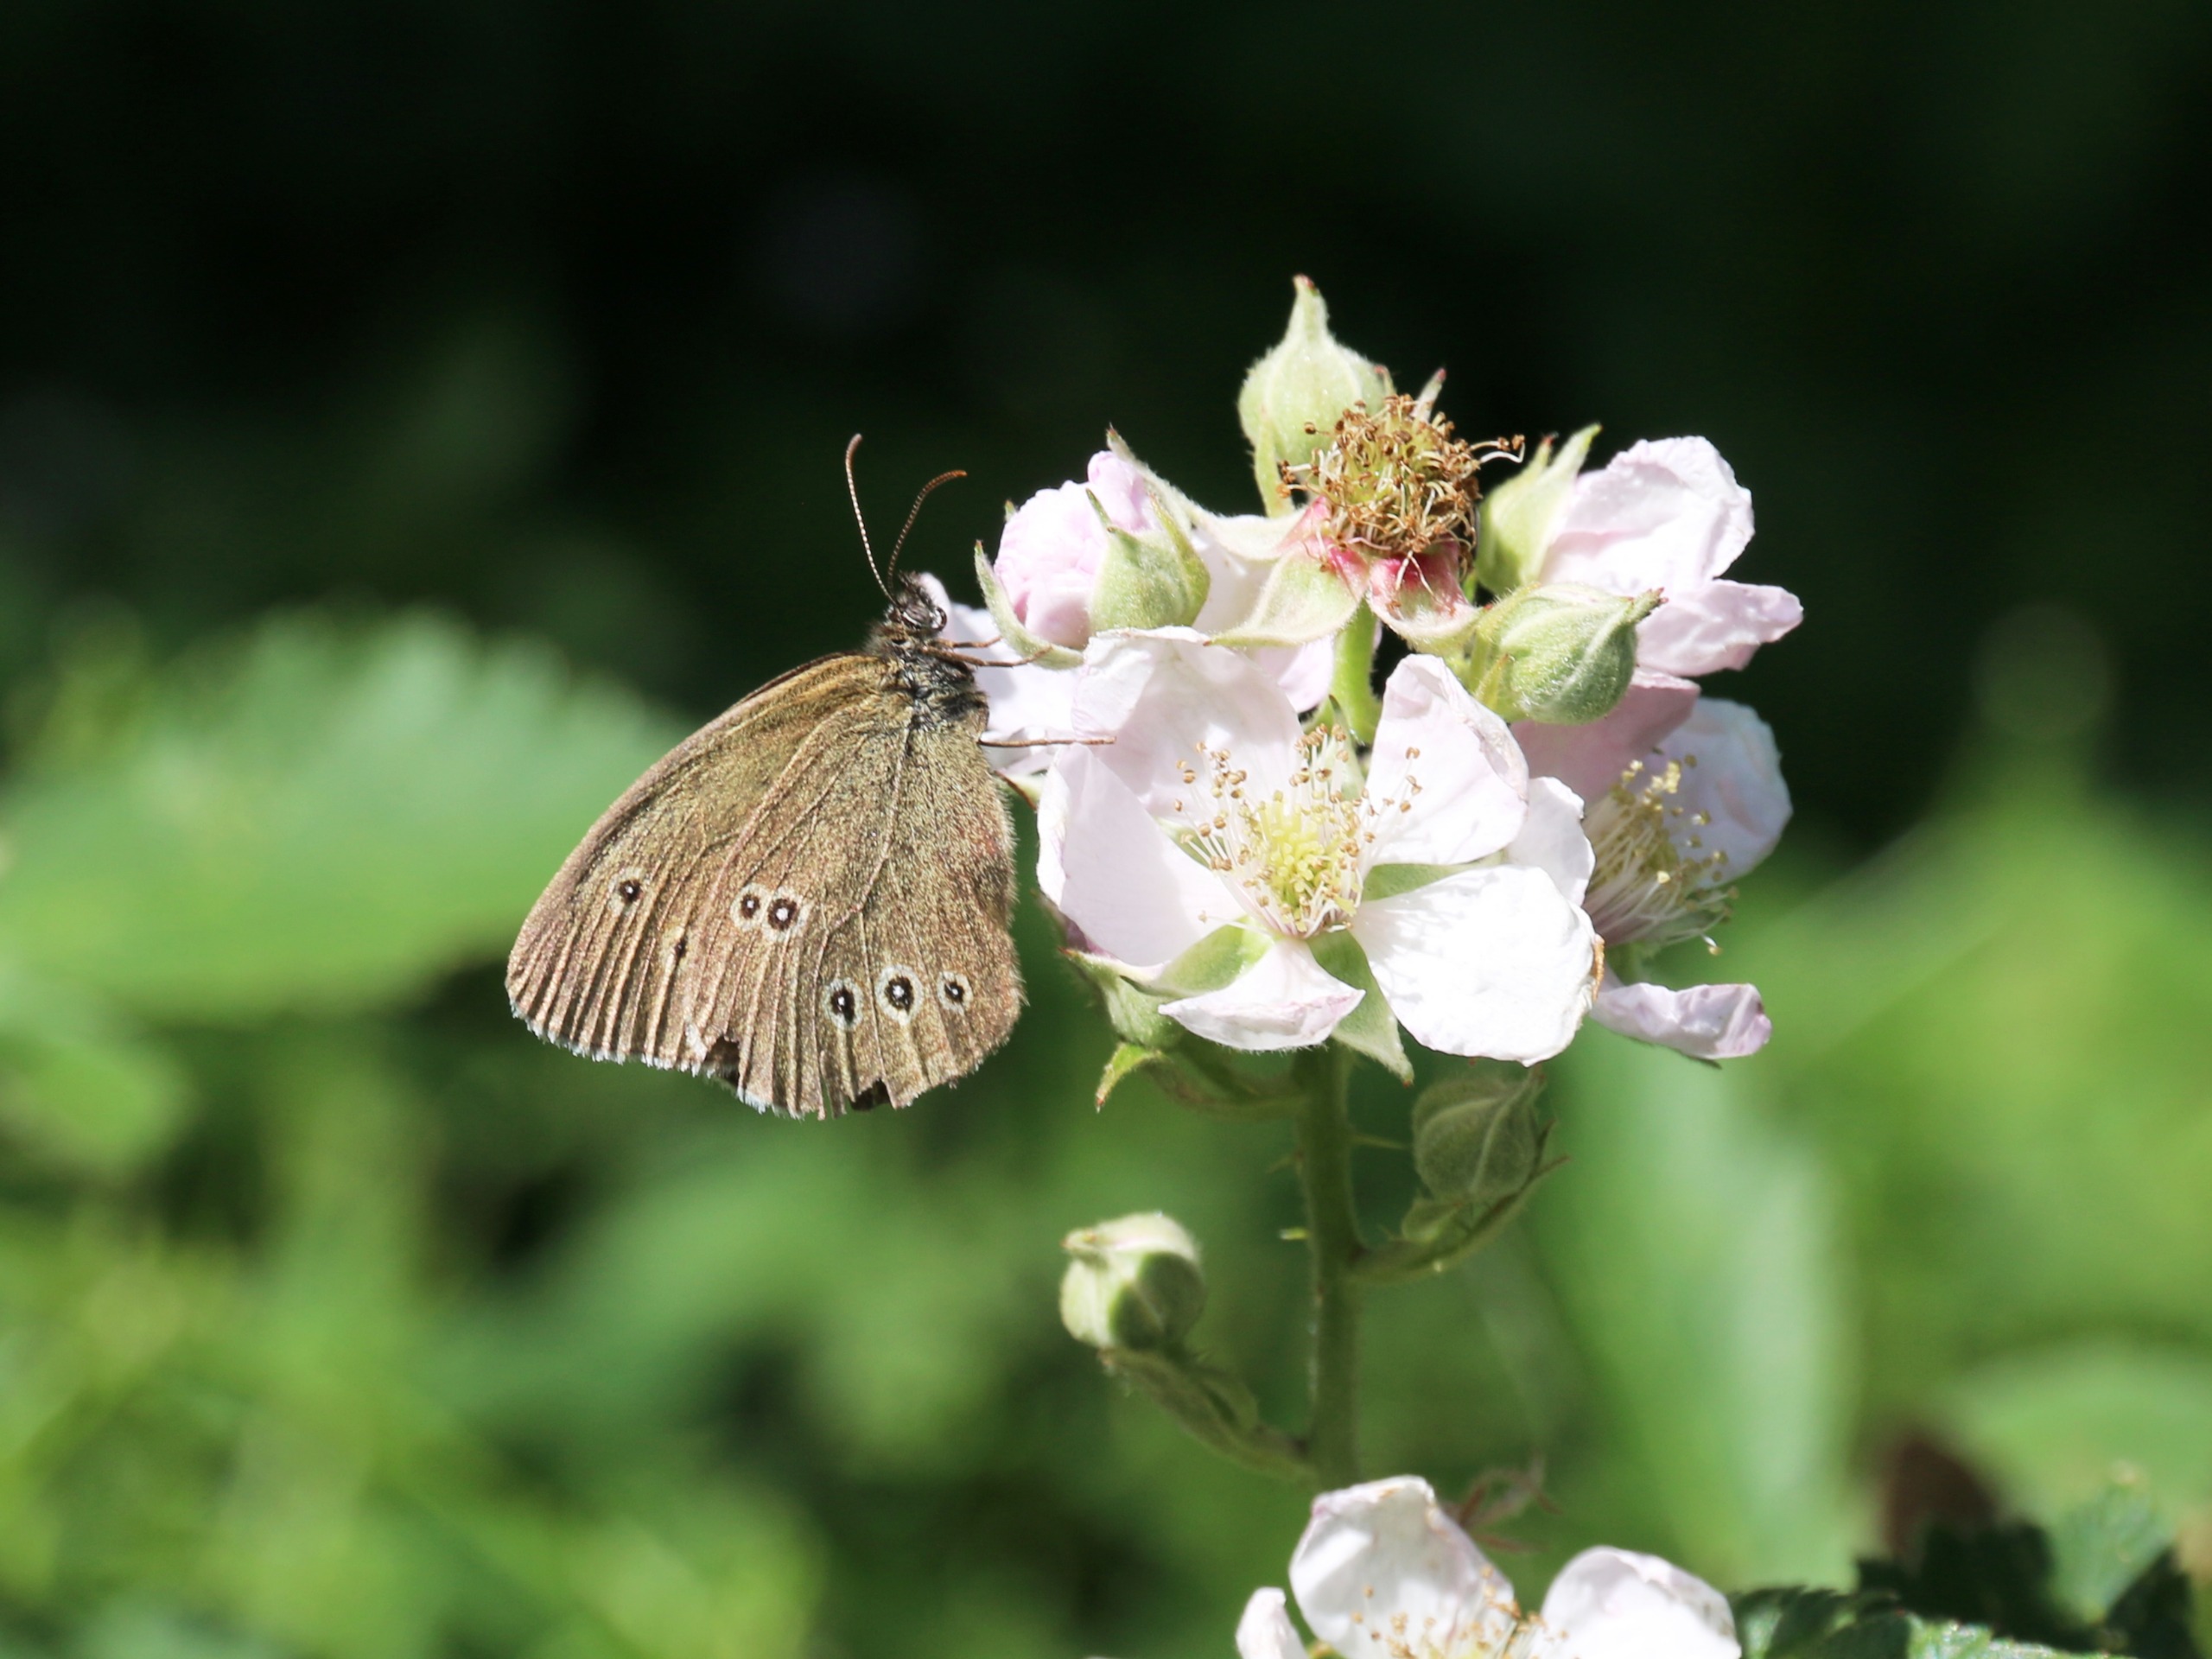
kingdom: Animalia
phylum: Arthropoda
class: Insecta
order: Lepidoptera
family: Nymphalidae
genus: Aphantopus
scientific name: Aphantopus hyperantus
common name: Engrandøje
